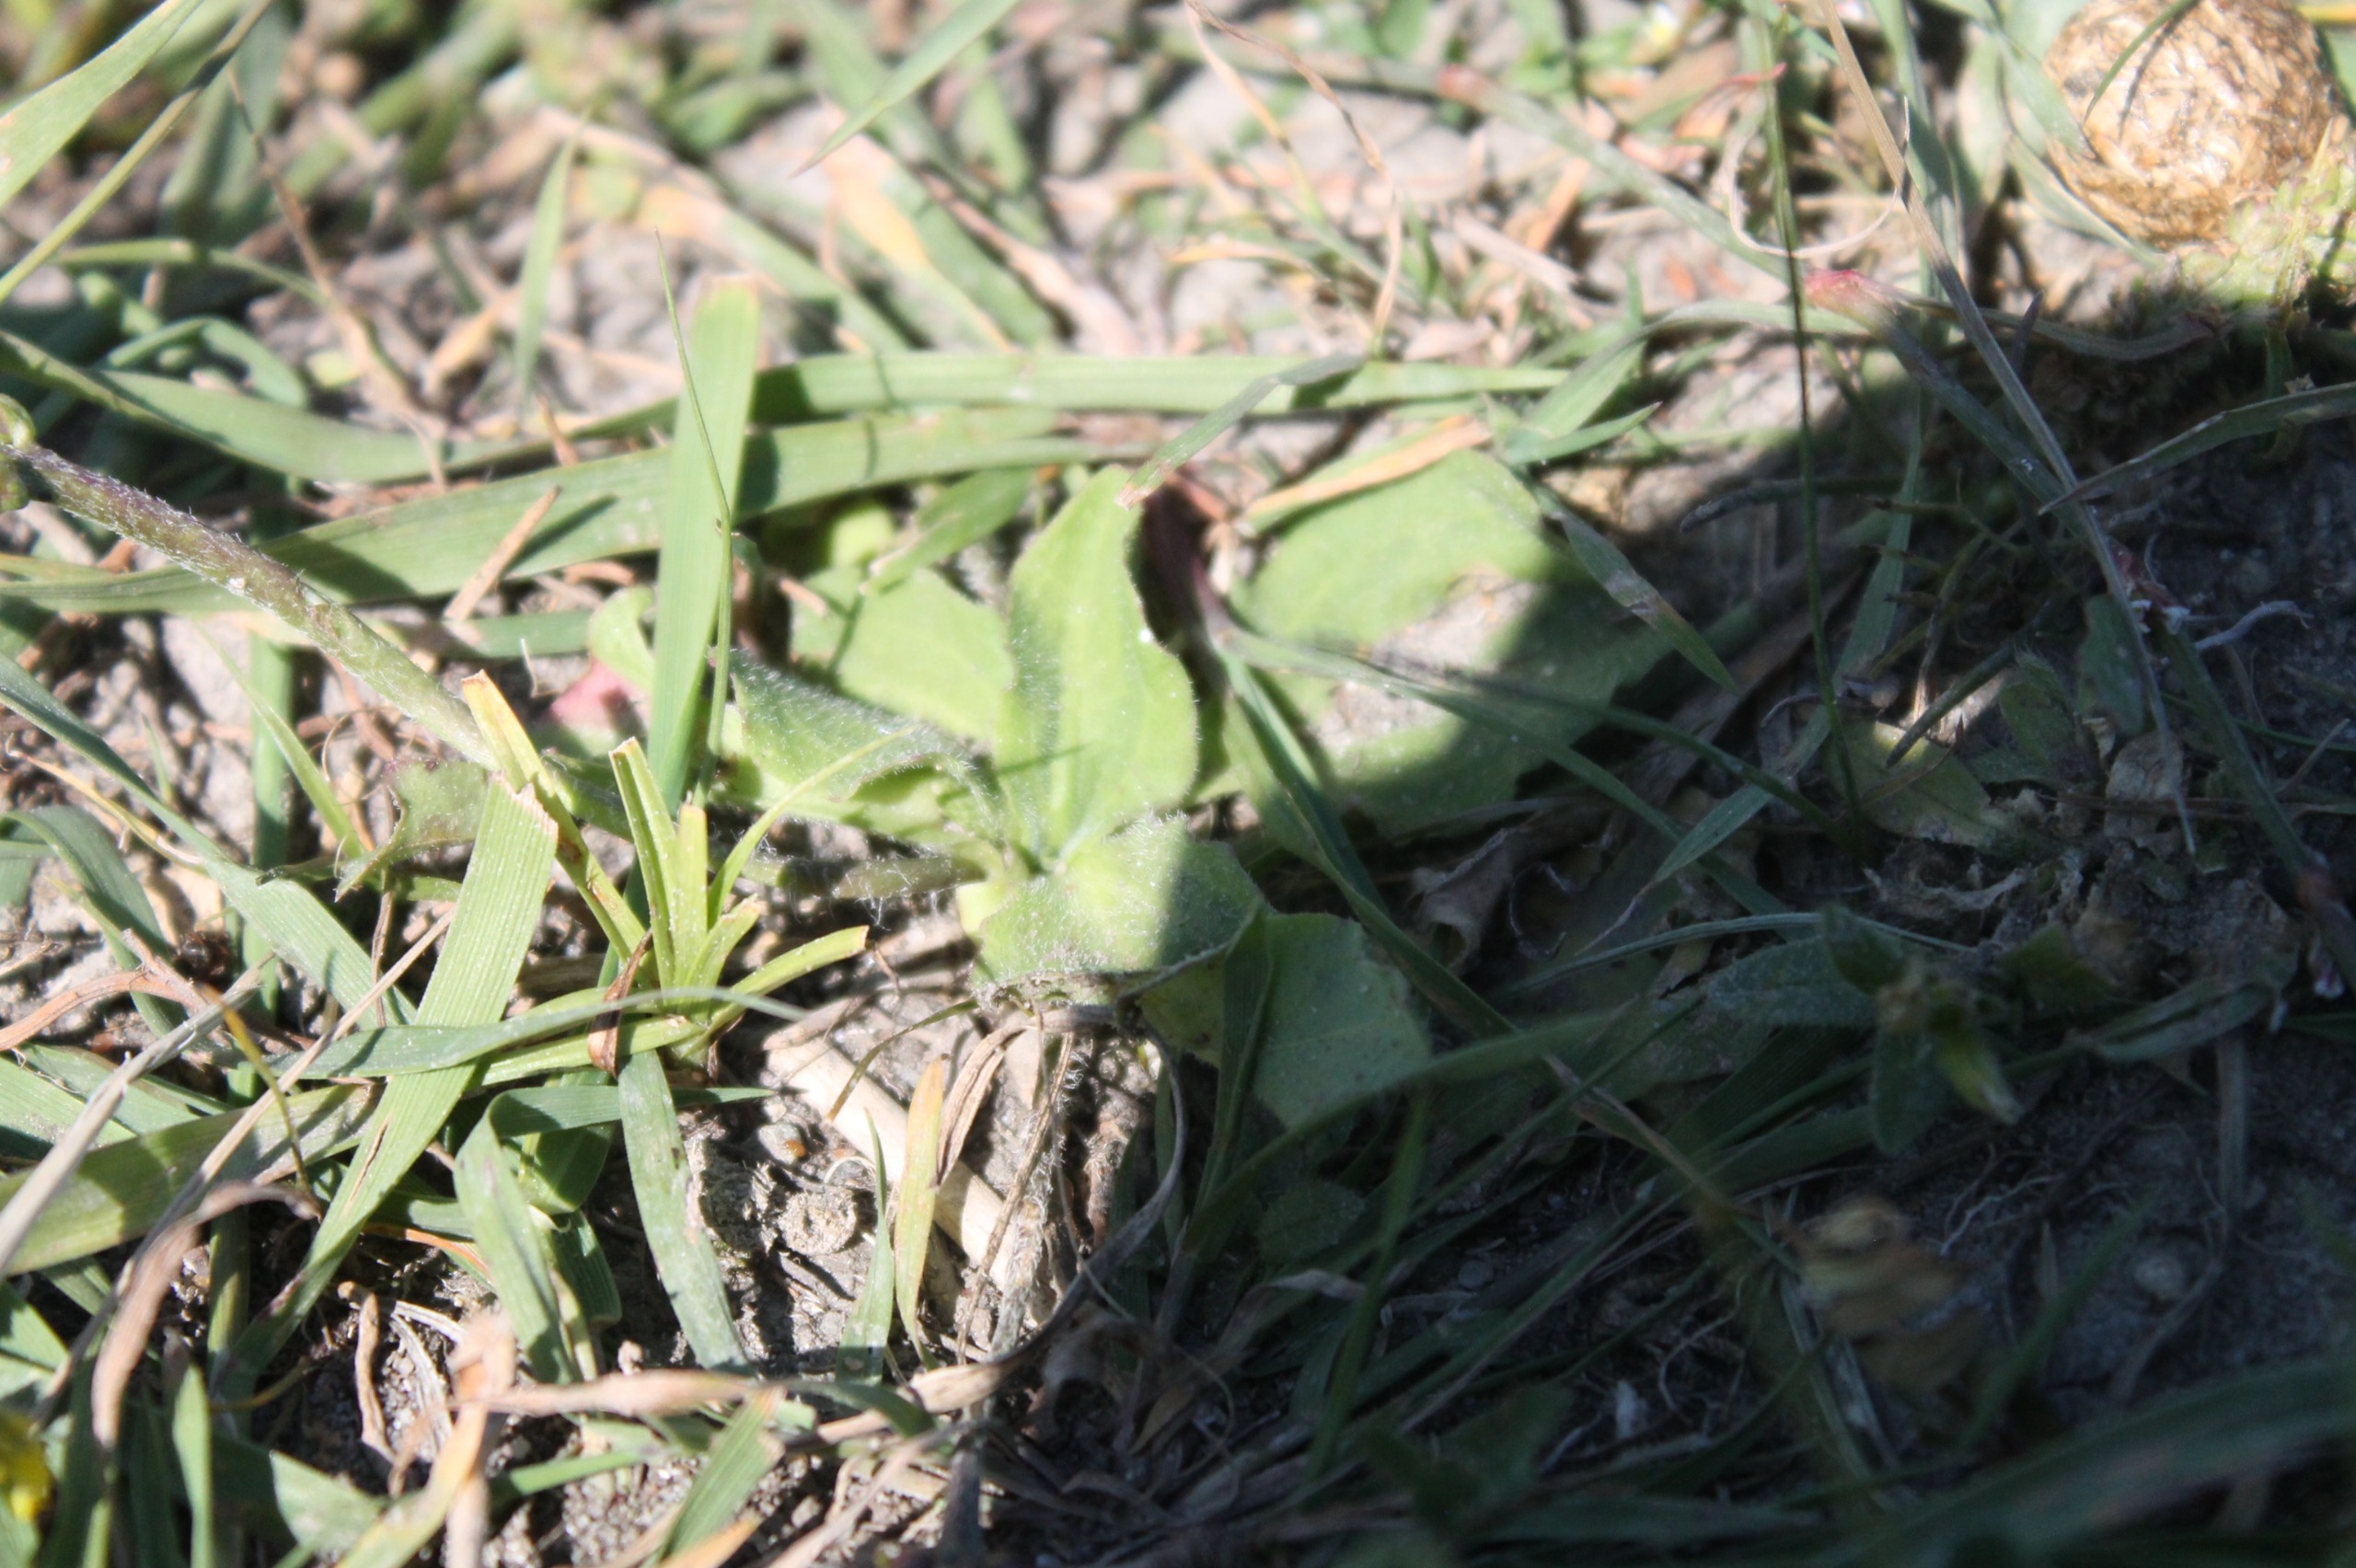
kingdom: Plantae
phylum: Tracheophyta
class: Magnoliopsida
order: Lamiales
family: Plantaginaceae
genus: Plantago
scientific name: Plantago major
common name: Glat vejbred
